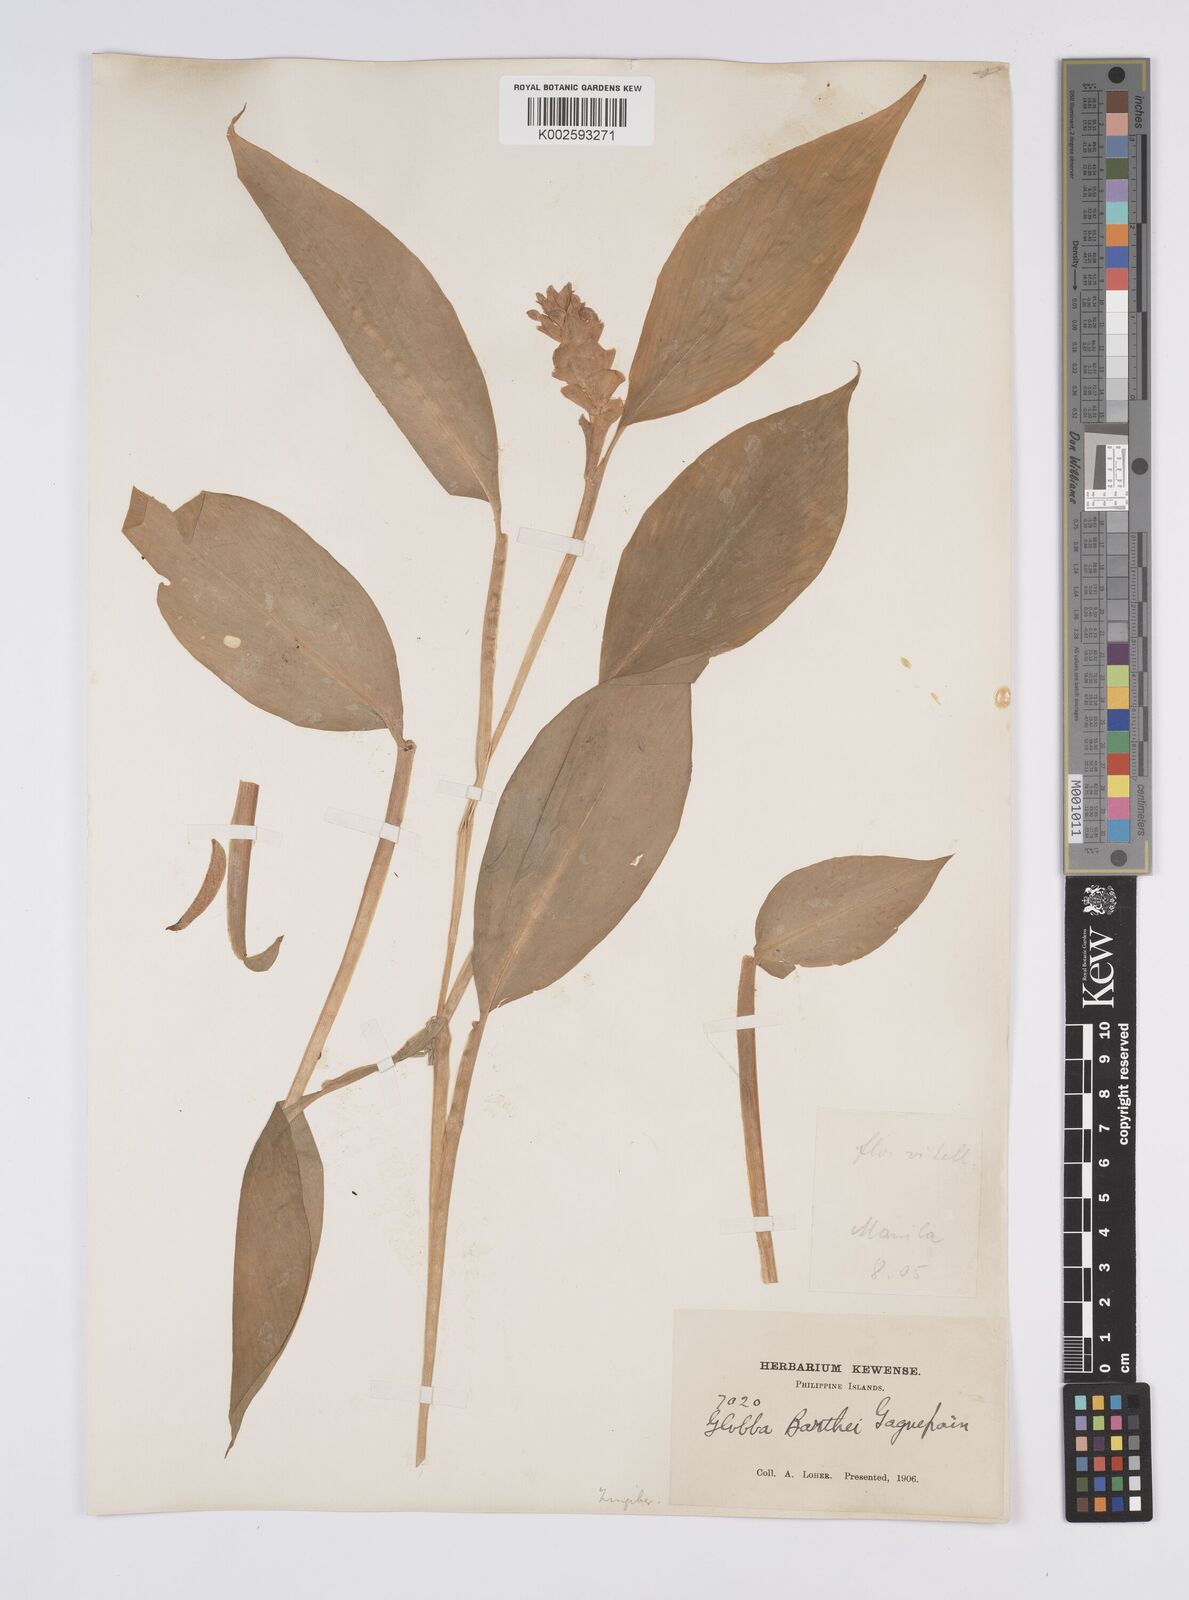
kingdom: Plantae
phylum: Tracheophyta
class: Liliopsida
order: Zingiberales
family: Zingiberaceae
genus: Globba
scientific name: Globba marantina
